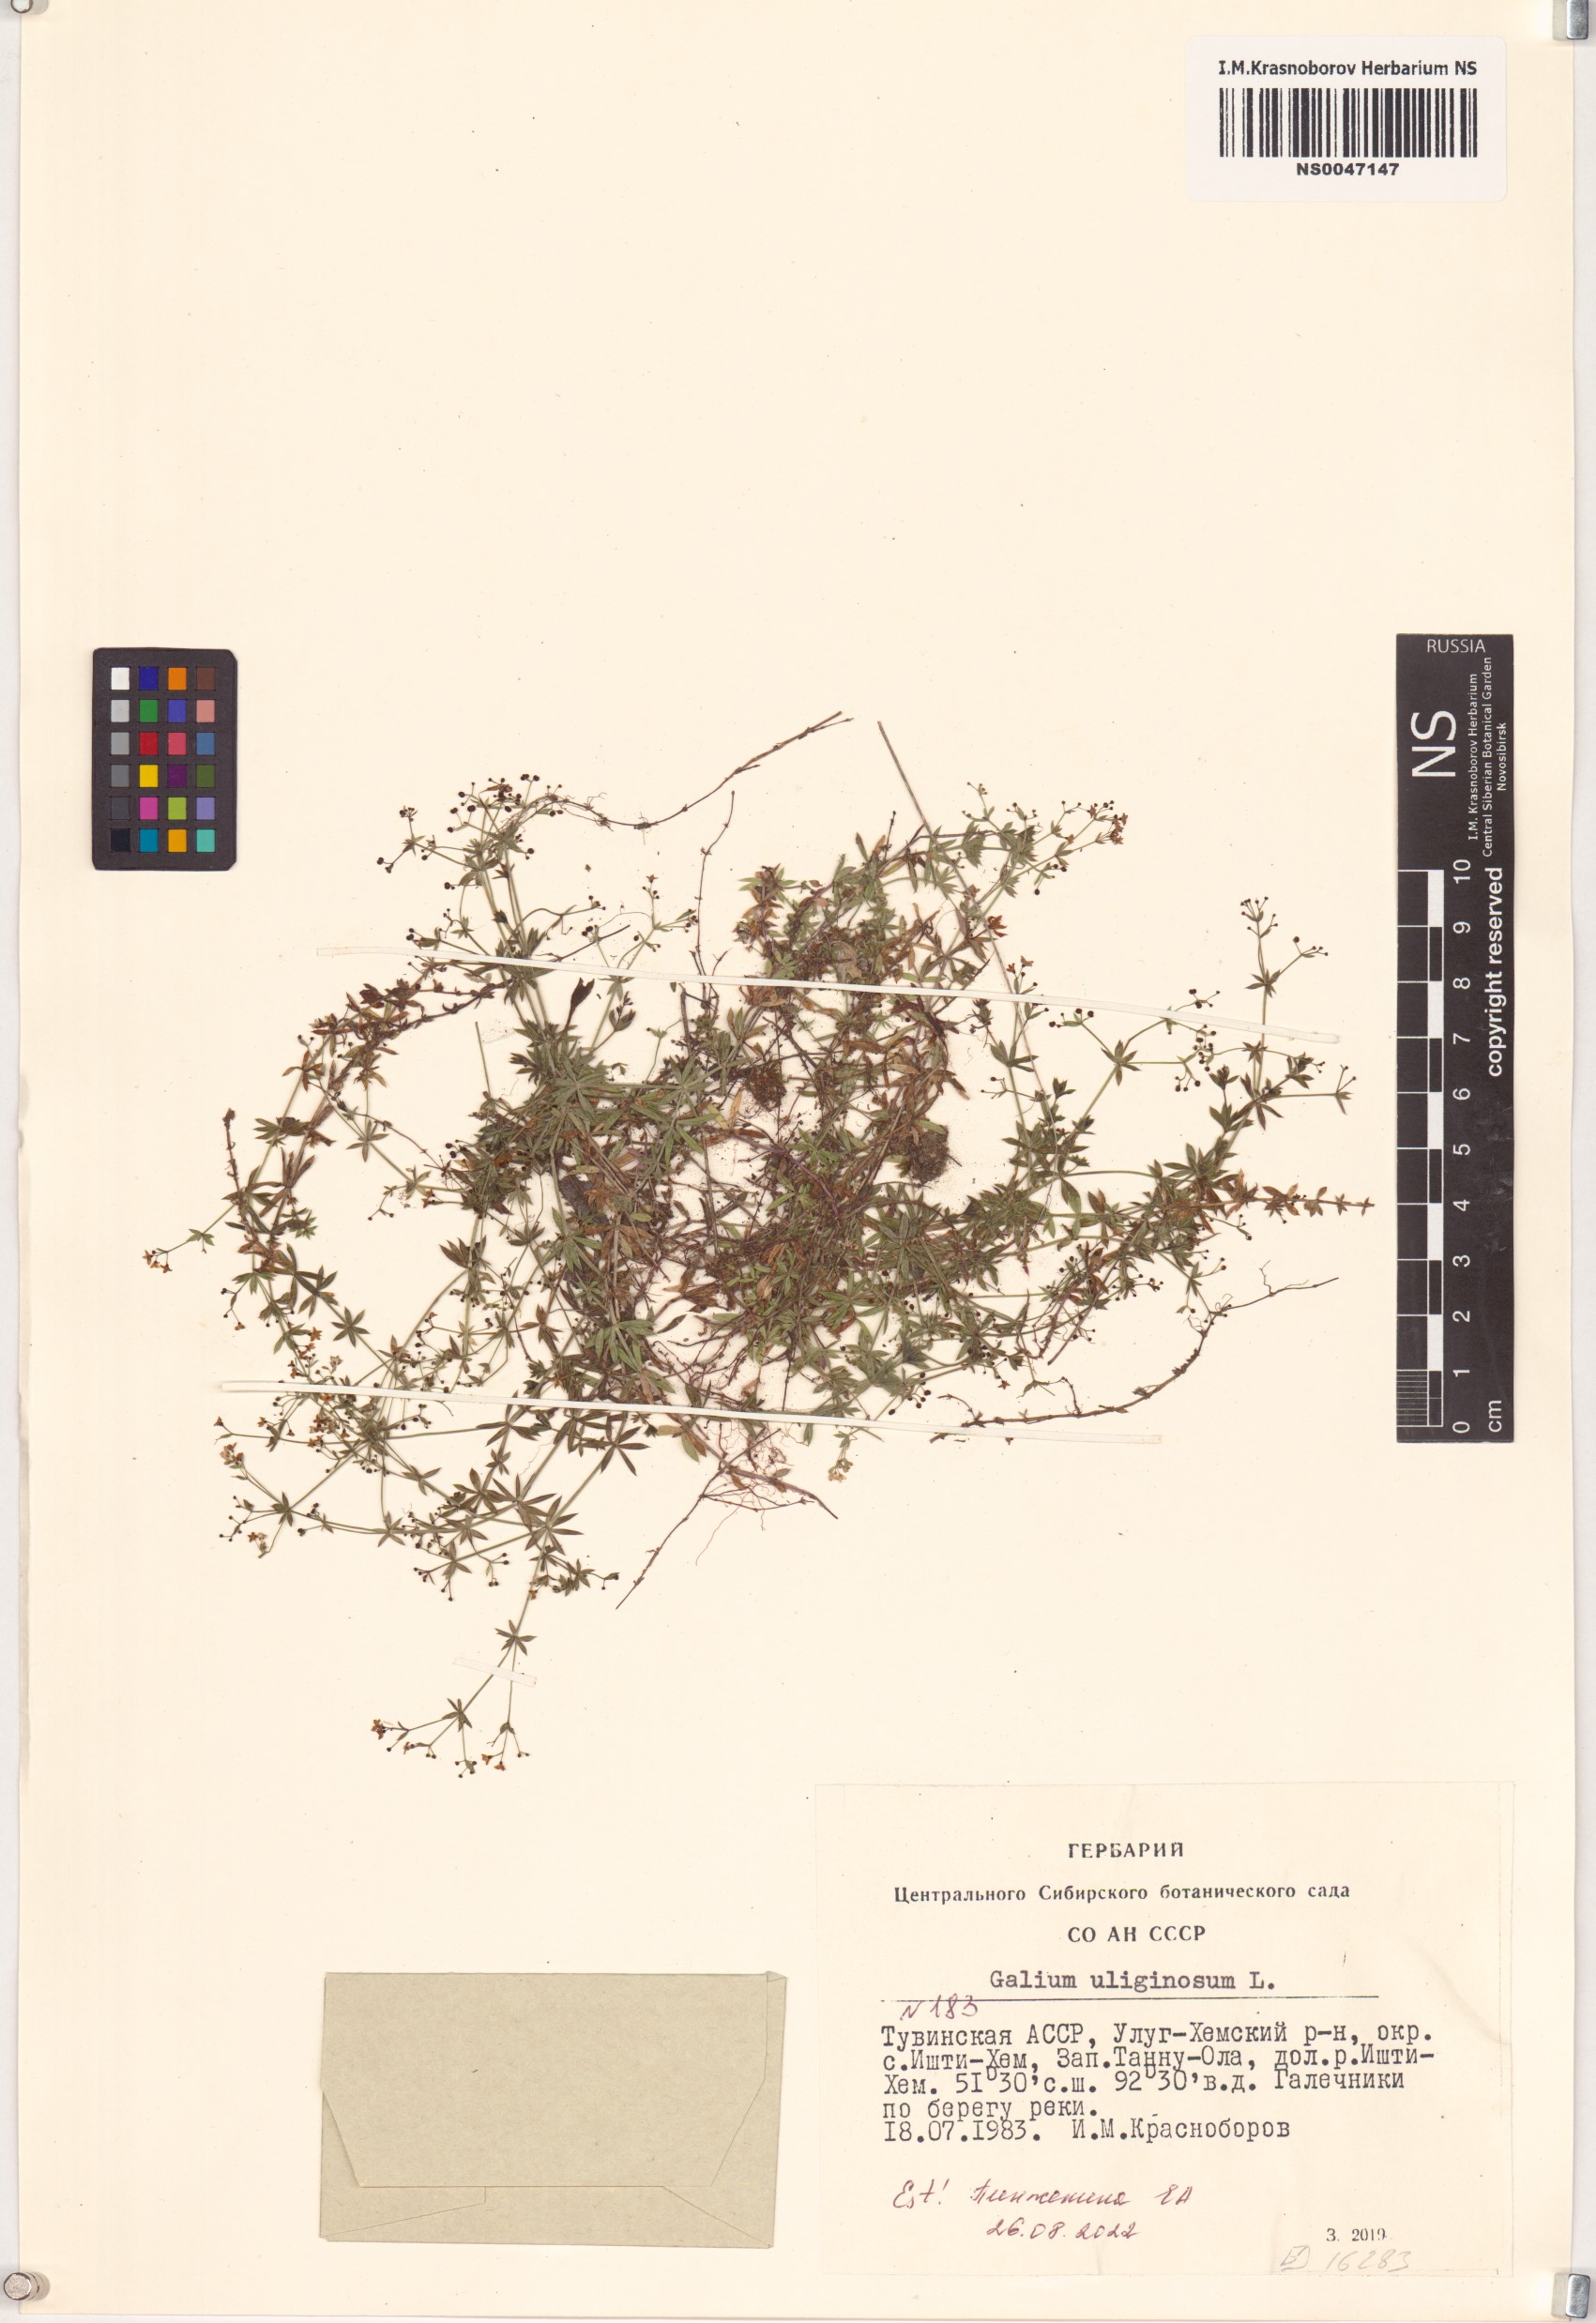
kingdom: Plantae
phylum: Tracheophyta
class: Magnoliopsida
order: Gentianales
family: Rubiaceae
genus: Galium
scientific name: Galium uliginosum
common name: Fen bedstraw
